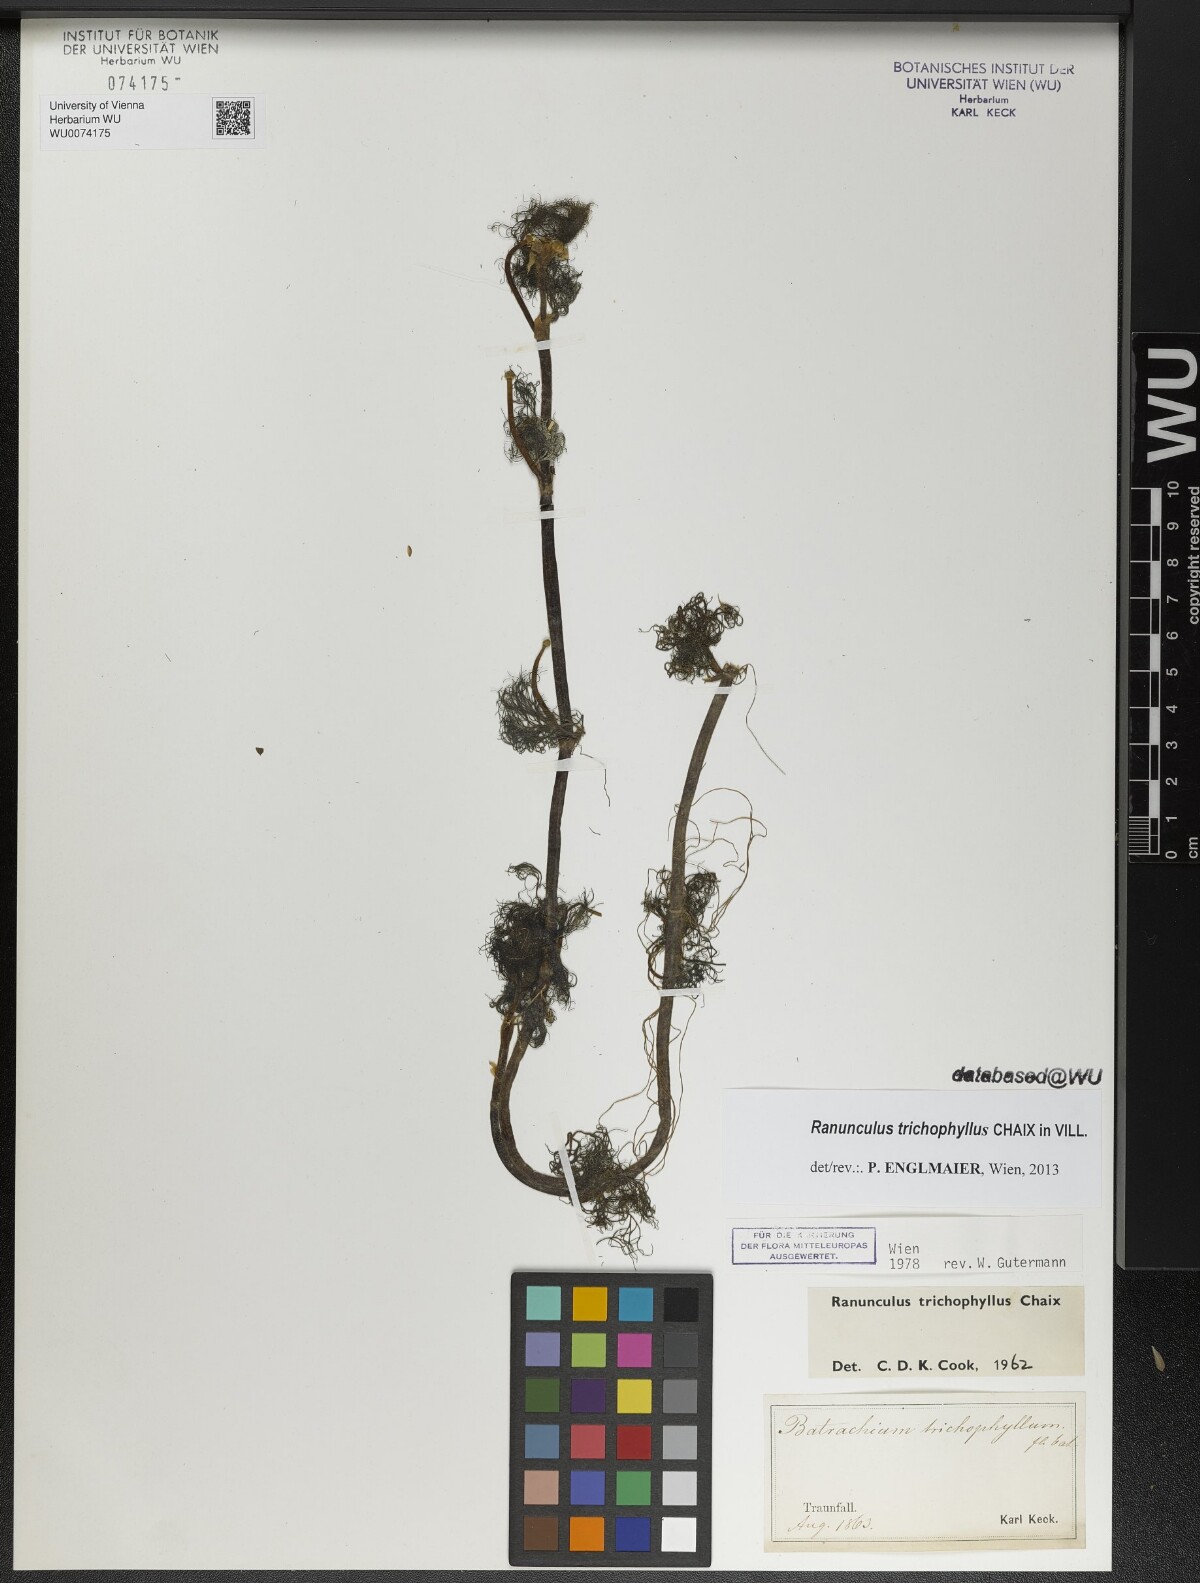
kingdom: Plantae
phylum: Tracheophyta
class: Magnoliopsida
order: Ranunculales
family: Ranunculaceae
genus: Ranunculus
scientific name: Ranunculus trichophyllus
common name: Thread-leaved water-crowfoot
